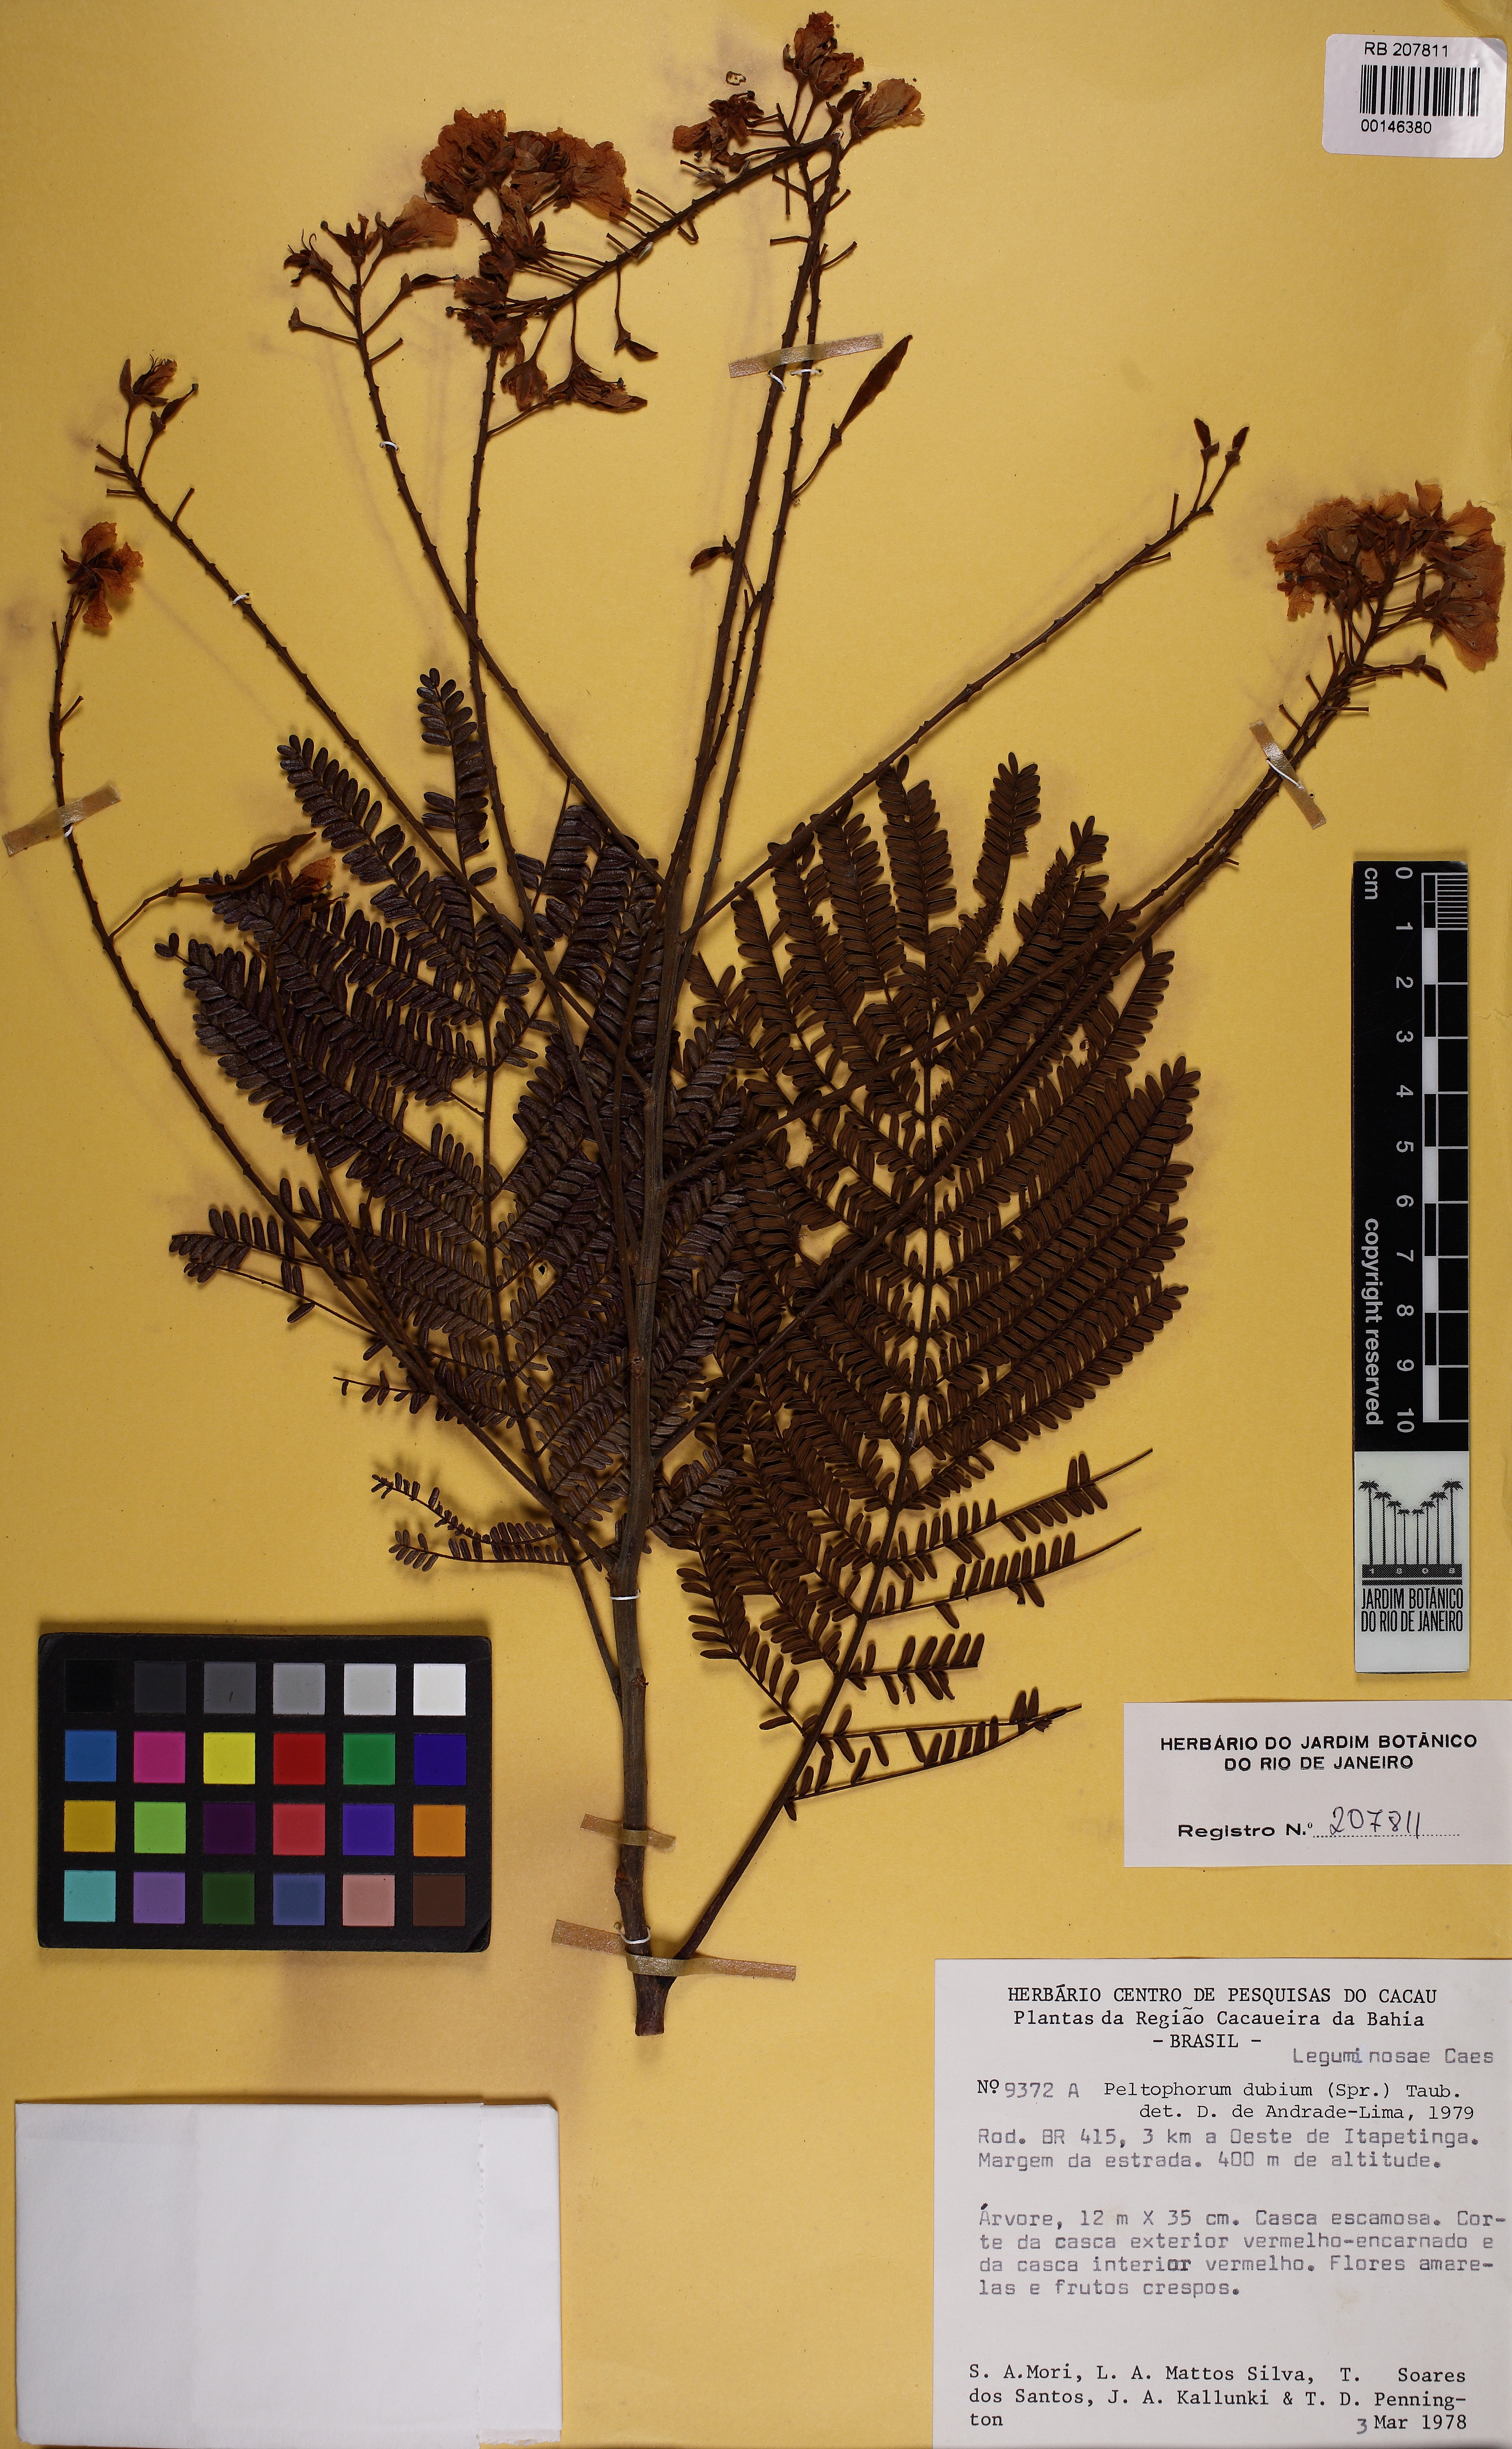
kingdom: Plantae
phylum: Tracheophyta
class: Magnoliopsida
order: Fabales
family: Fabaceae
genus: Peltophorum
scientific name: Peltophorum dubium
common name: Horsebush
